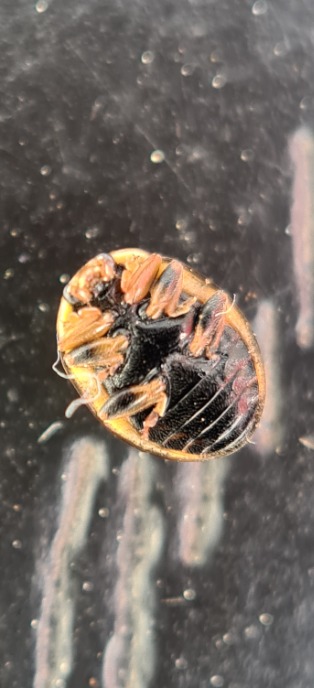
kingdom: Animalia
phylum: Arthropoda
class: Insecta
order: Coleoptera
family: Coccinellidae
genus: Propylaea
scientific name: Propylaea quatuordecimpunctata
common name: Skakbræt
